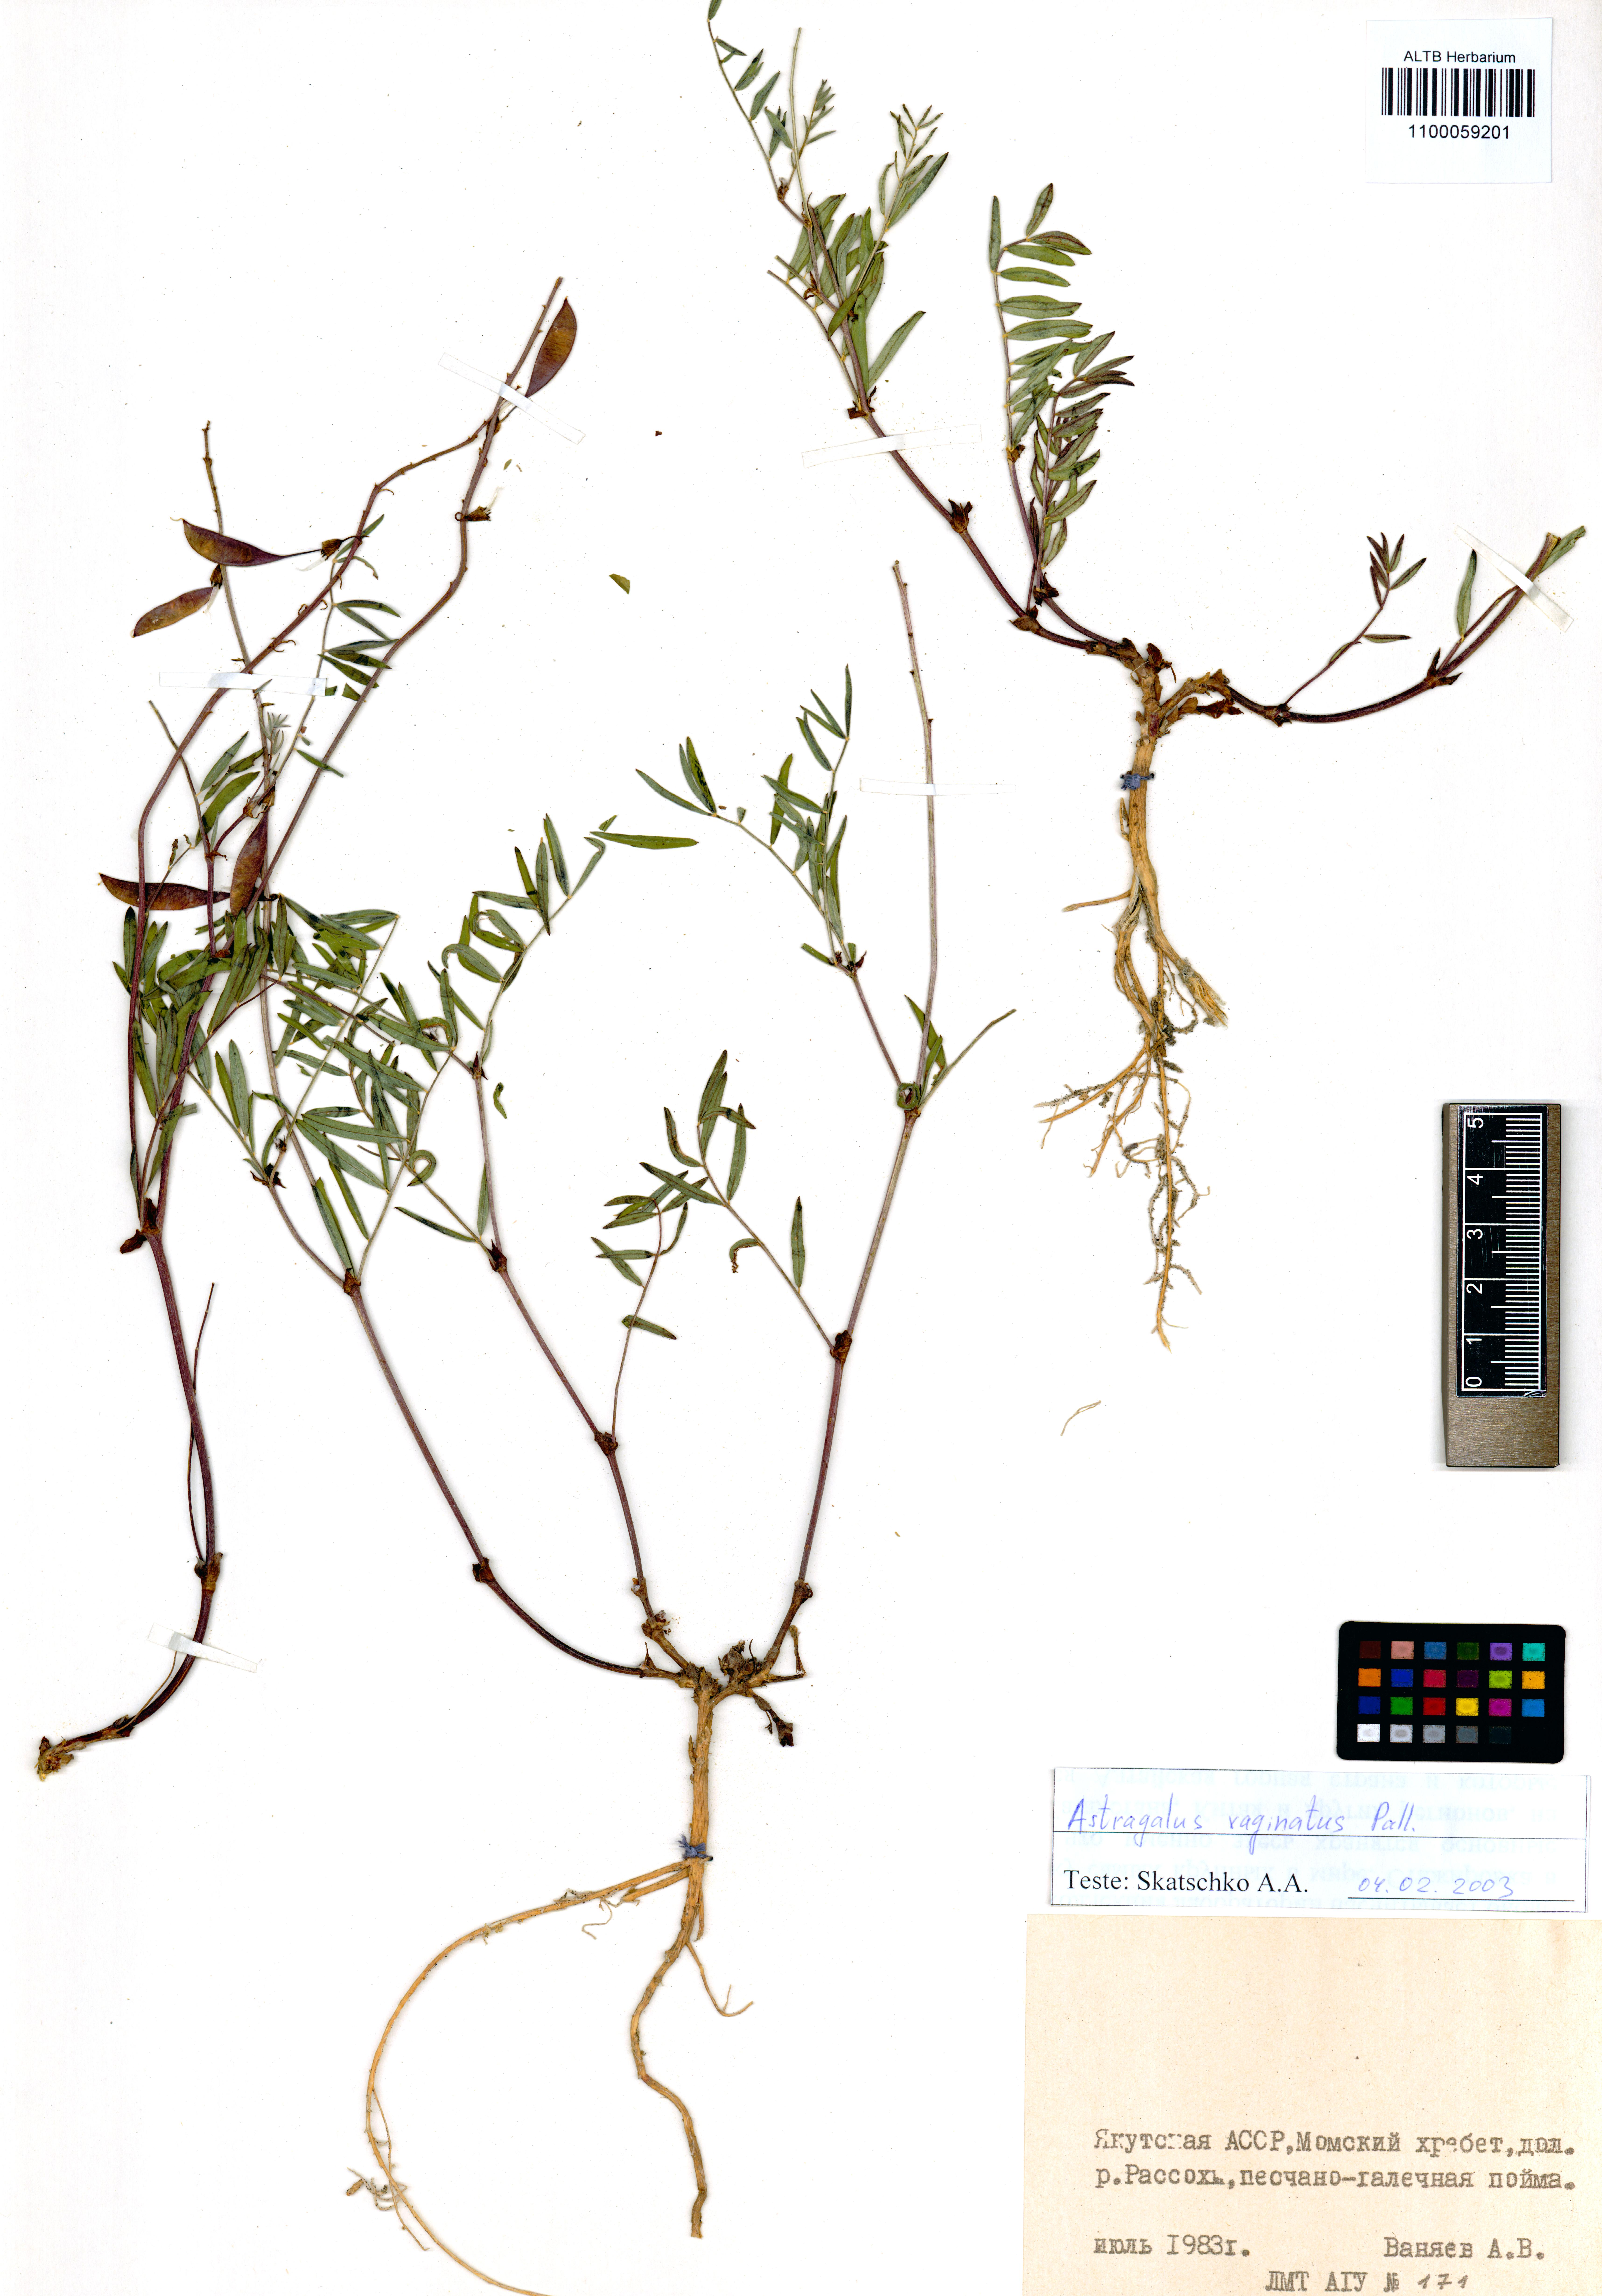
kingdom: Plantae
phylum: Tracheophyta
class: Magnoliopsida
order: Fabales
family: Fabaceae
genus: Astragalus
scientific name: Astragalus vaginatus
